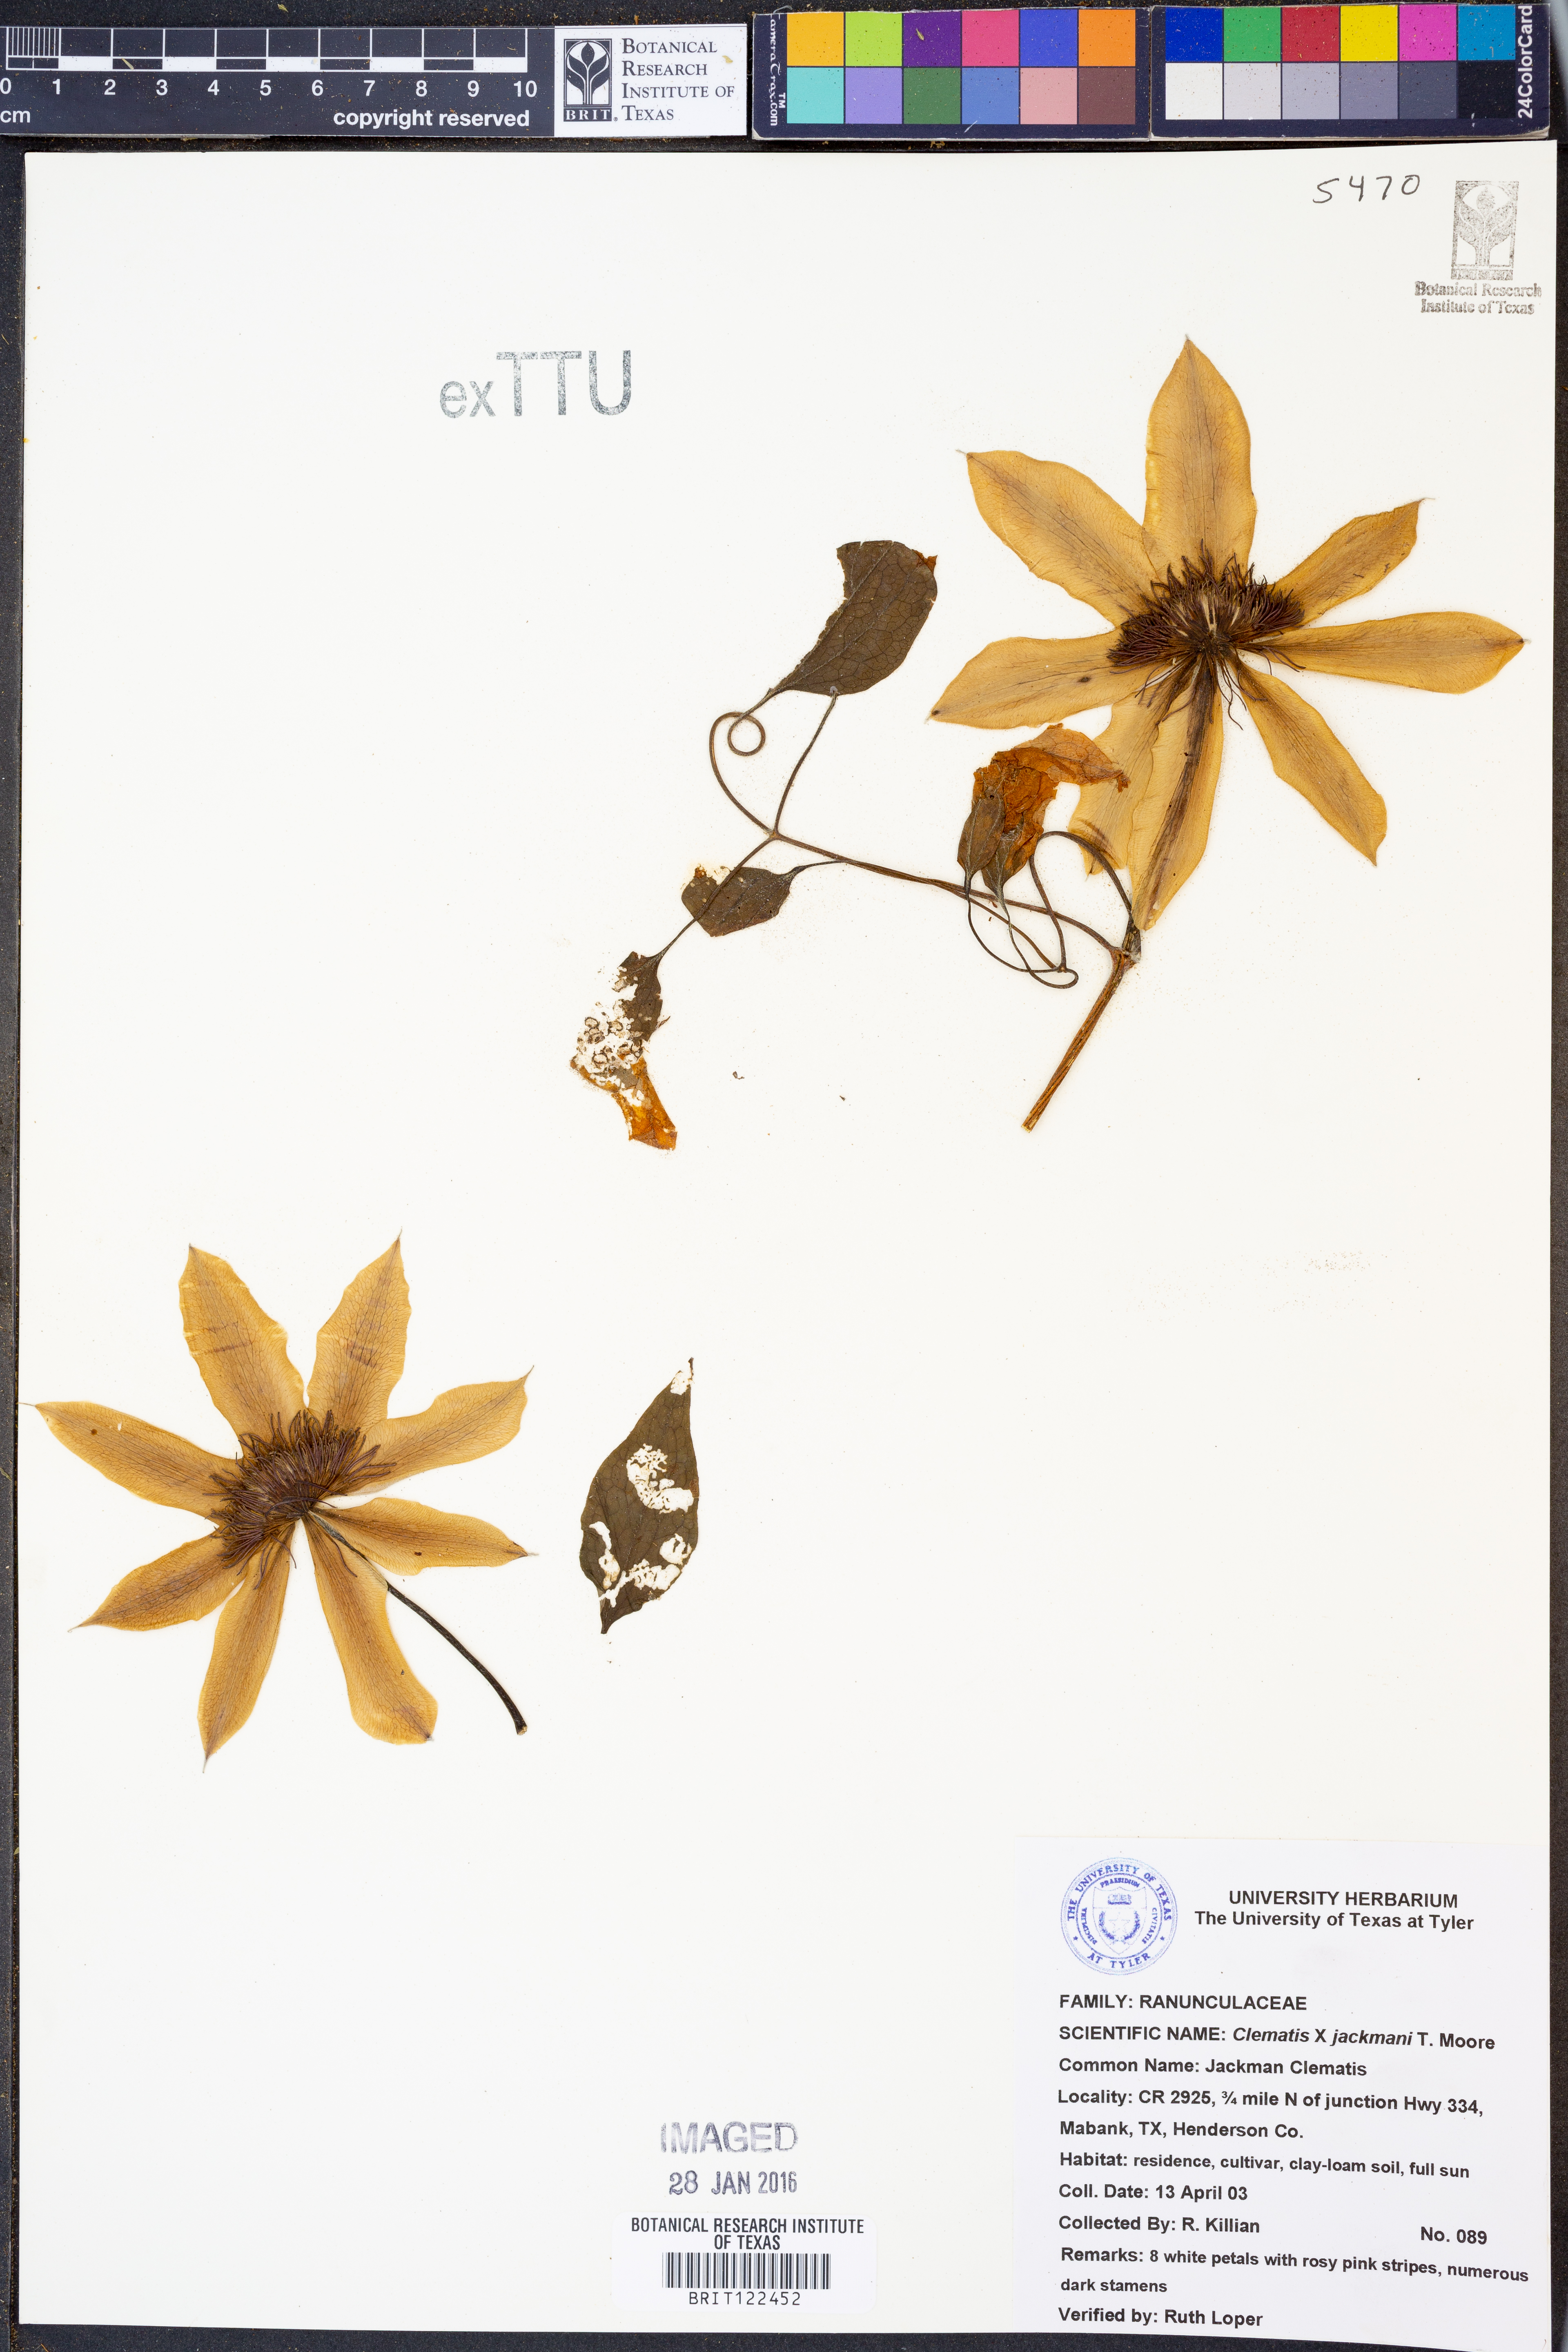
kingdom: Plantae
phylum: Tracheophyta
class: Magnoliopsida
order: Ranunculales
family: Ranunculaceae
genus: Clematis
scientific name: Clematis jackmanii
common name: Leather flower
